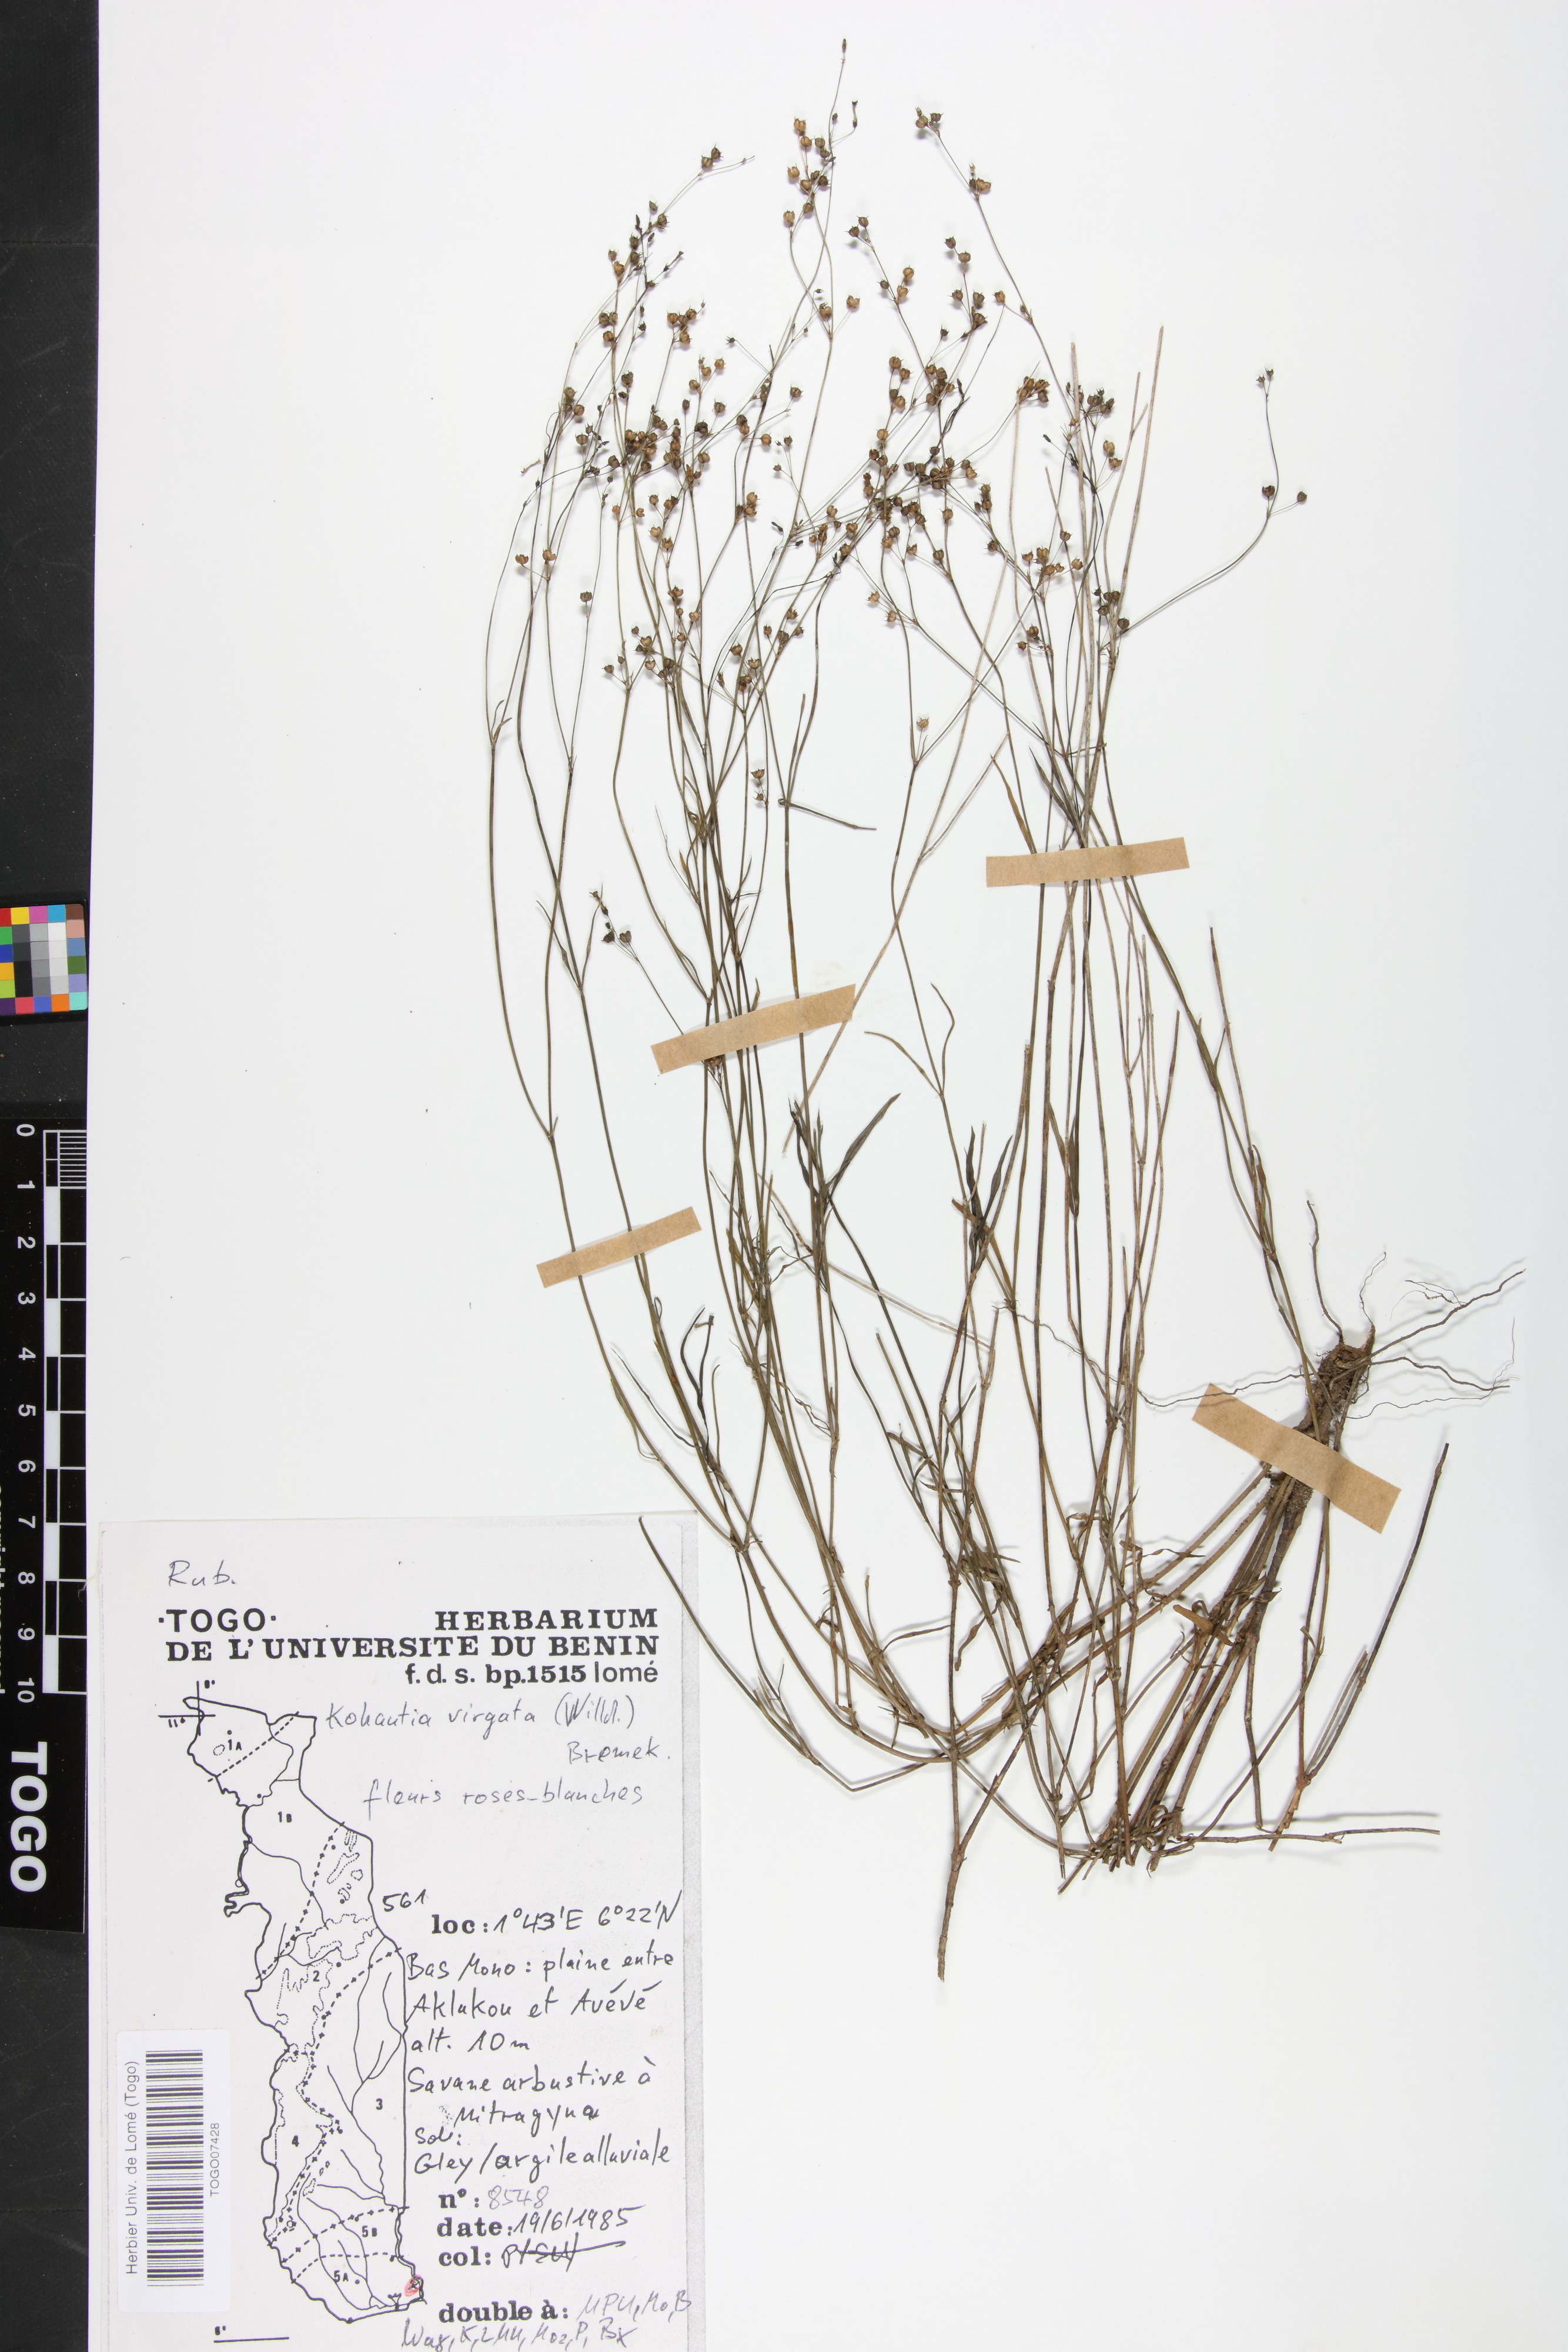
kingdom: Plantae
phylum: Tracheophyta
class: Magnoliopsida
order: Gentianales
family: Rubiaceae
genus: Cordylostigma
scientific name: Cordylostigma virgatum
